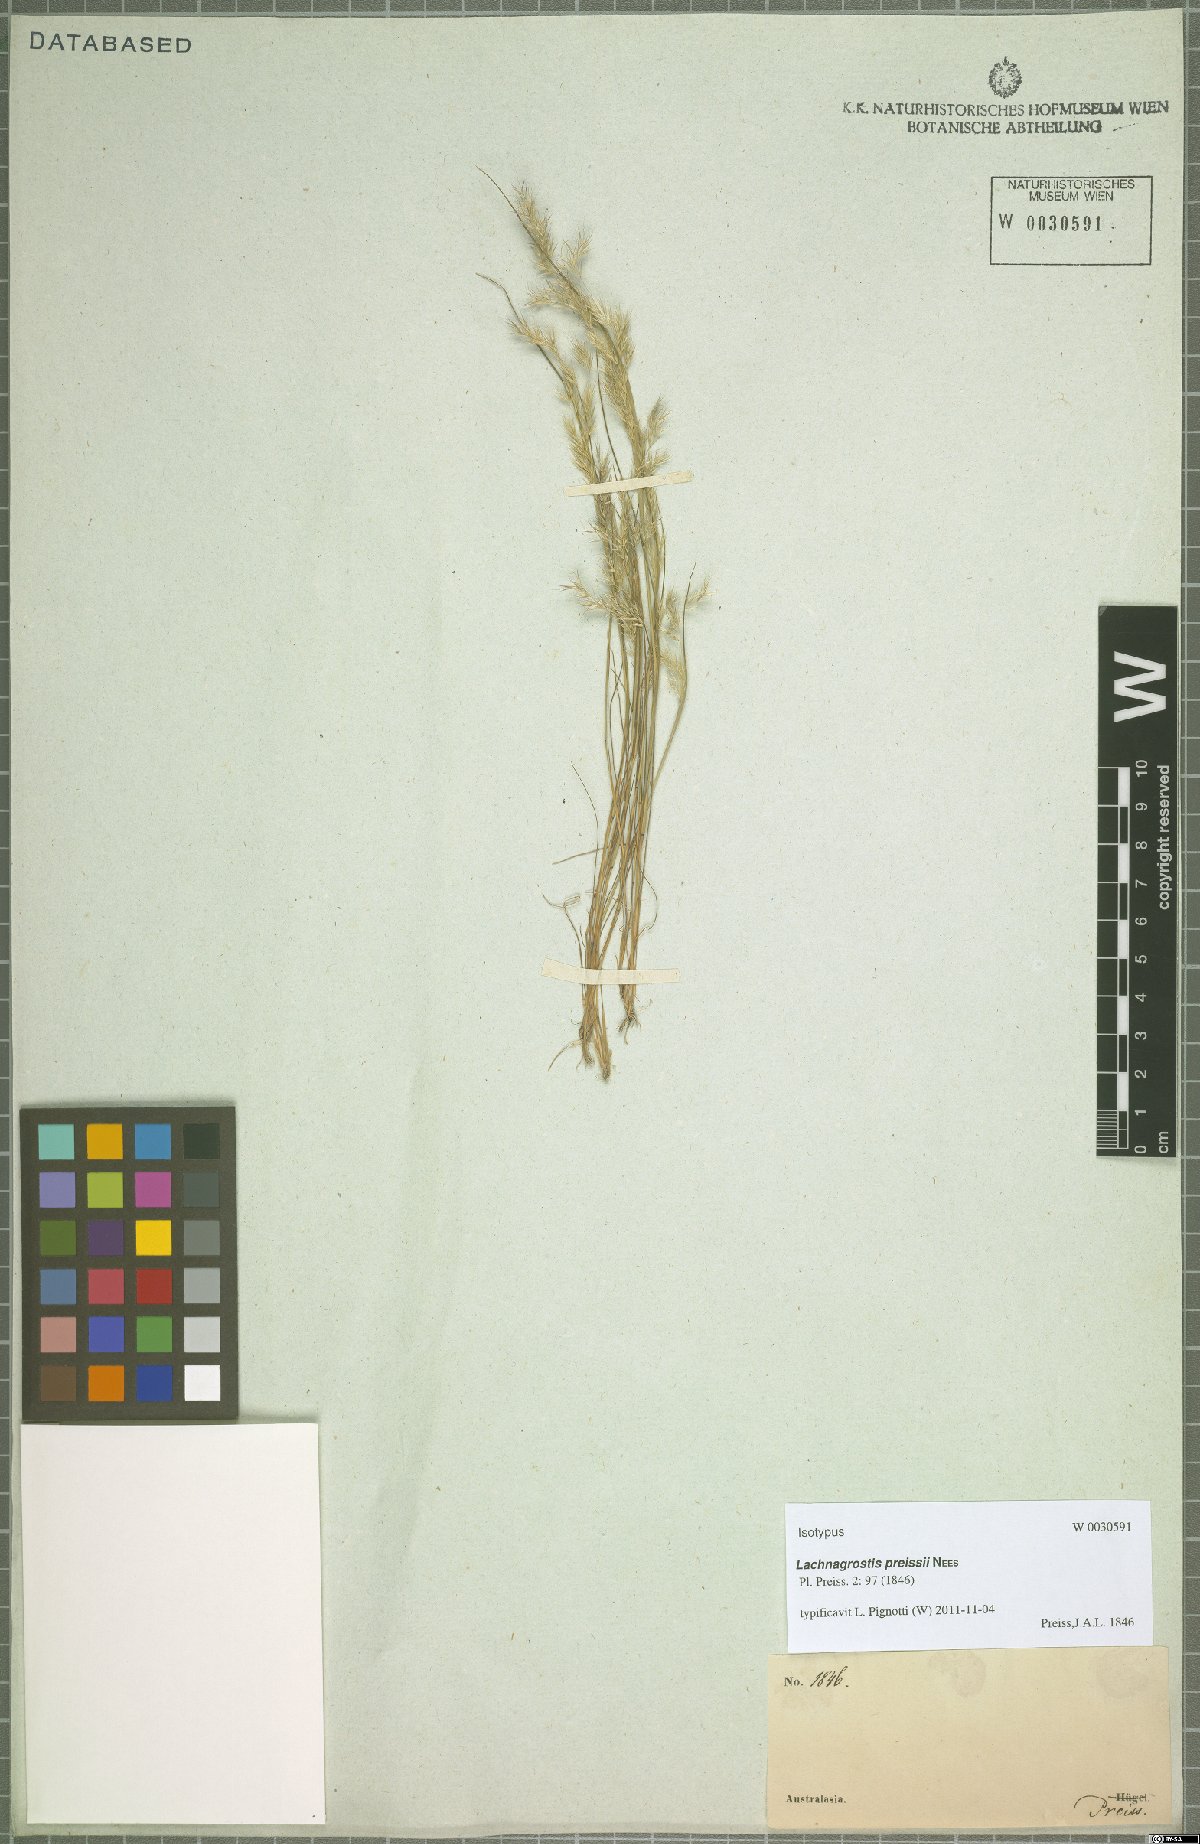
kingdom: Plantae
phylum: Tracheophyta
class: Liliopsida
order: Poales
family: Poaceae
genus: Lachnagrostis
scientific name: Lachnagrostis preissii
